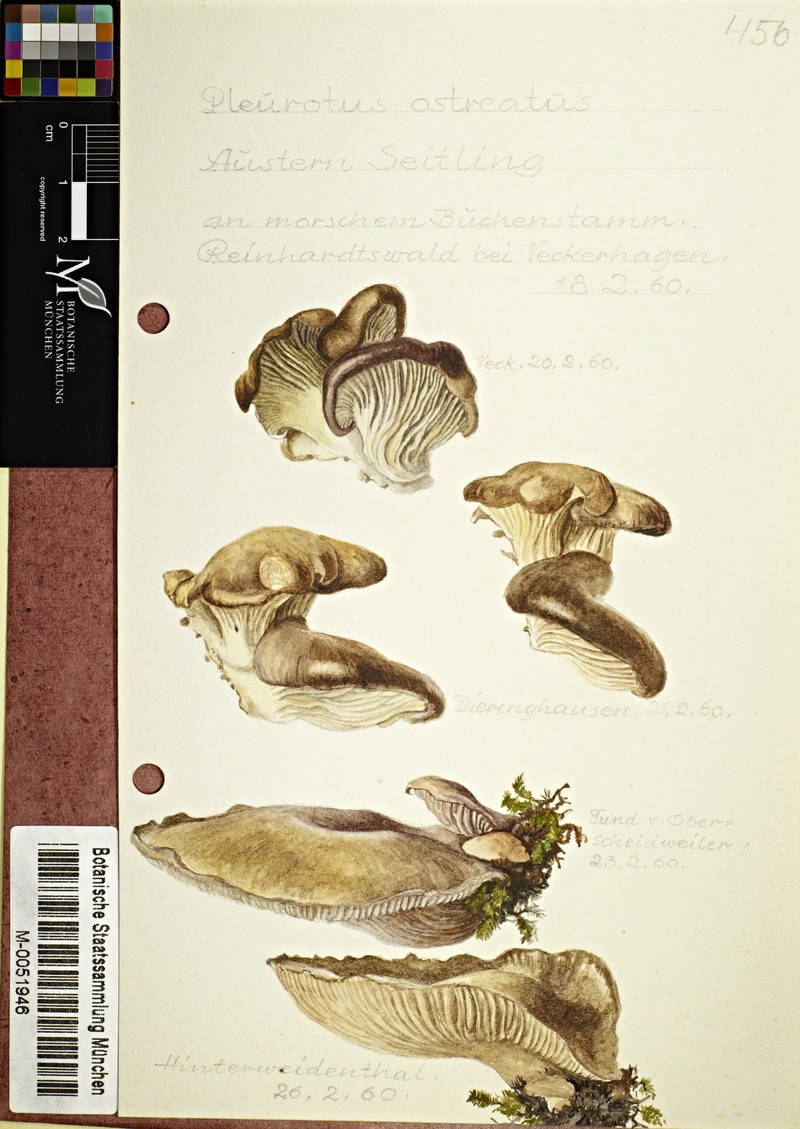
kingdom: Fungi
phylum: Basidiomycota
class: Agaricomycetes
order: Agaricales
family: Pleurotaceae
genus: Pleurotus
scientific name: Pleurotus ostreatus
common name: Oyster mushroom
